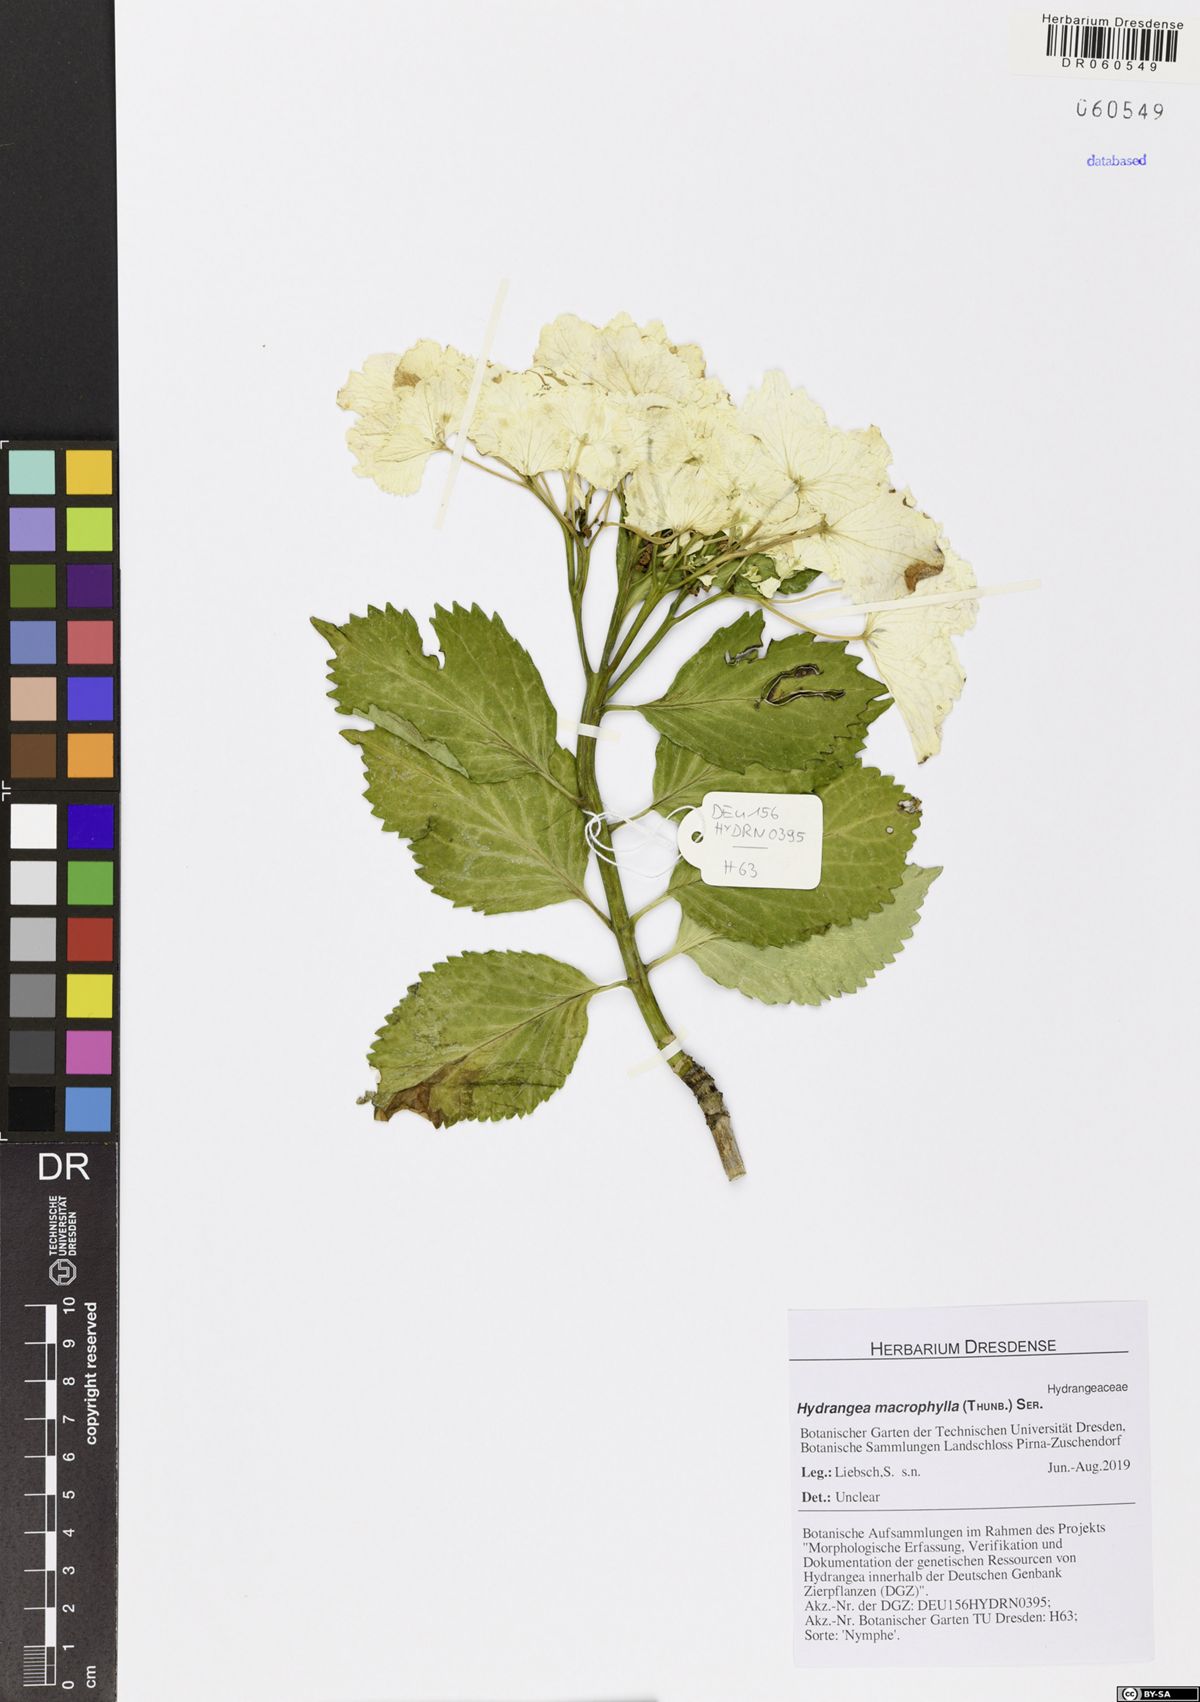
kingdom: Plantae
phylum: Tracheophyta
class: Magnoliopsida
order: Cornales
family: Hydrangeaceae
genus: Hydrangea
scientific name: Hydrangea macrophylla
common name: Hydrangea
